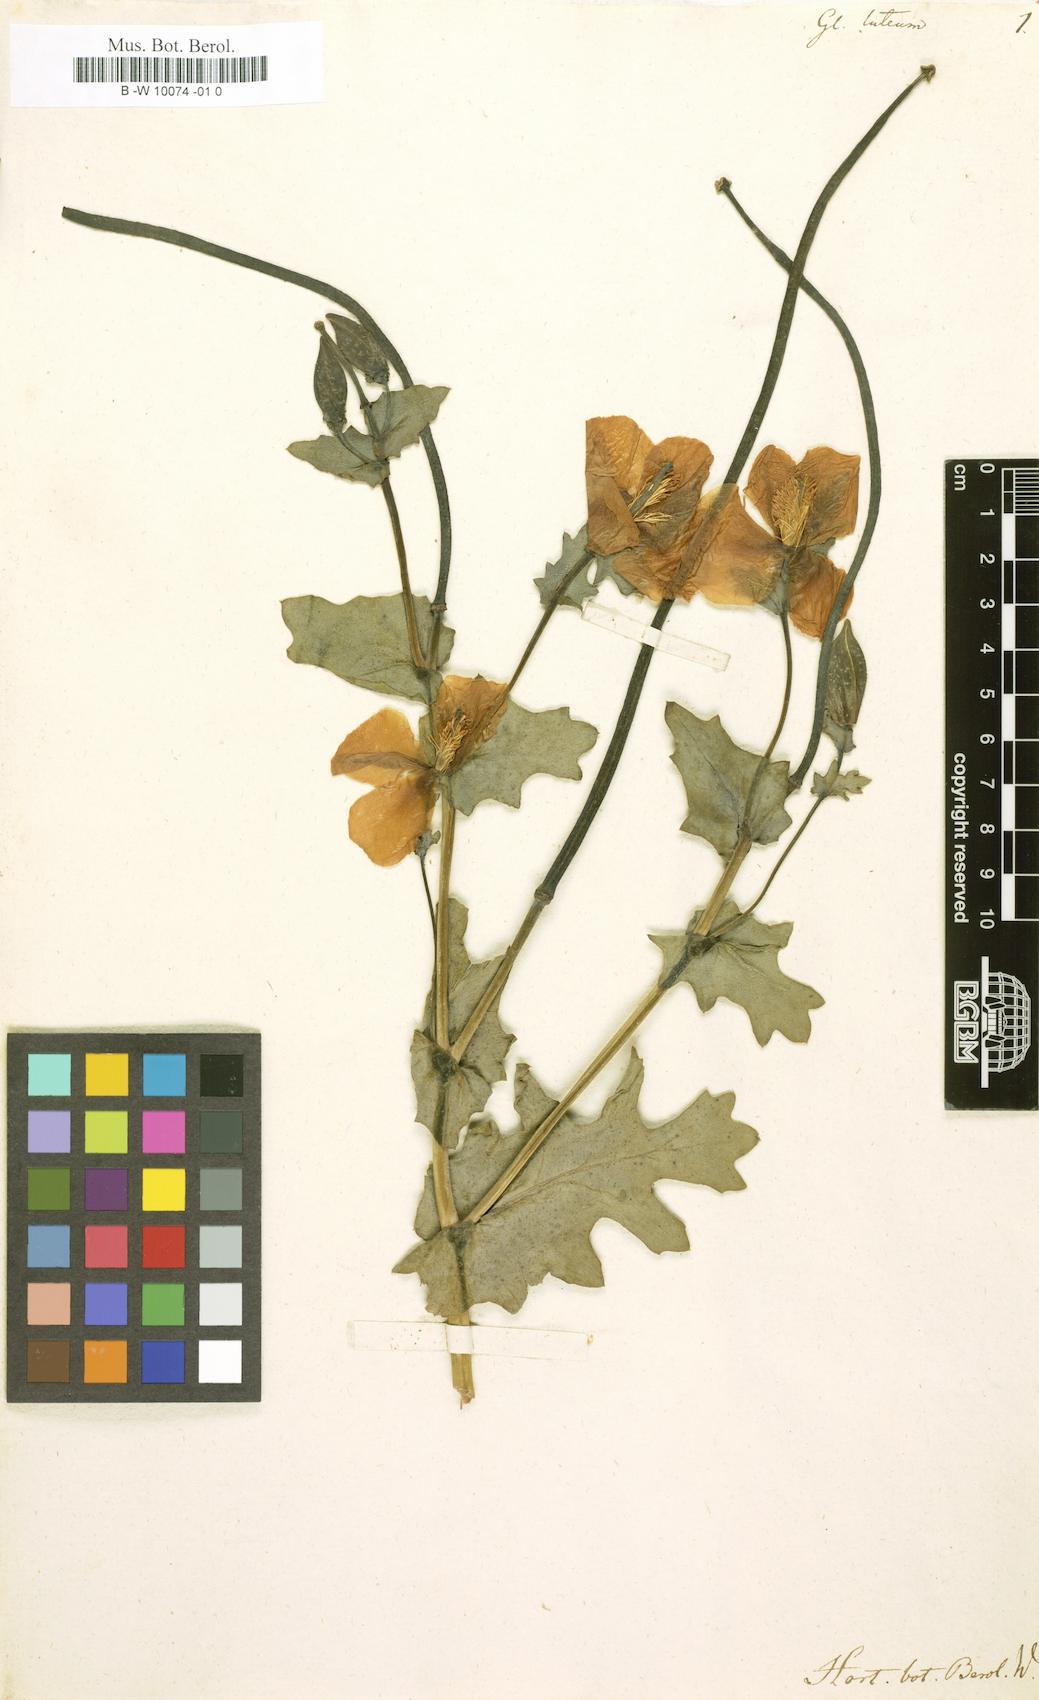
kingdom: Plantae
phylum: Tracheophyta
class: Magnoliopsida
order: Ranunculales
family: Papaveraceae
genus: Glaucium
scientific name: Glaucium flavum
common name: Yellow horned-poppy
